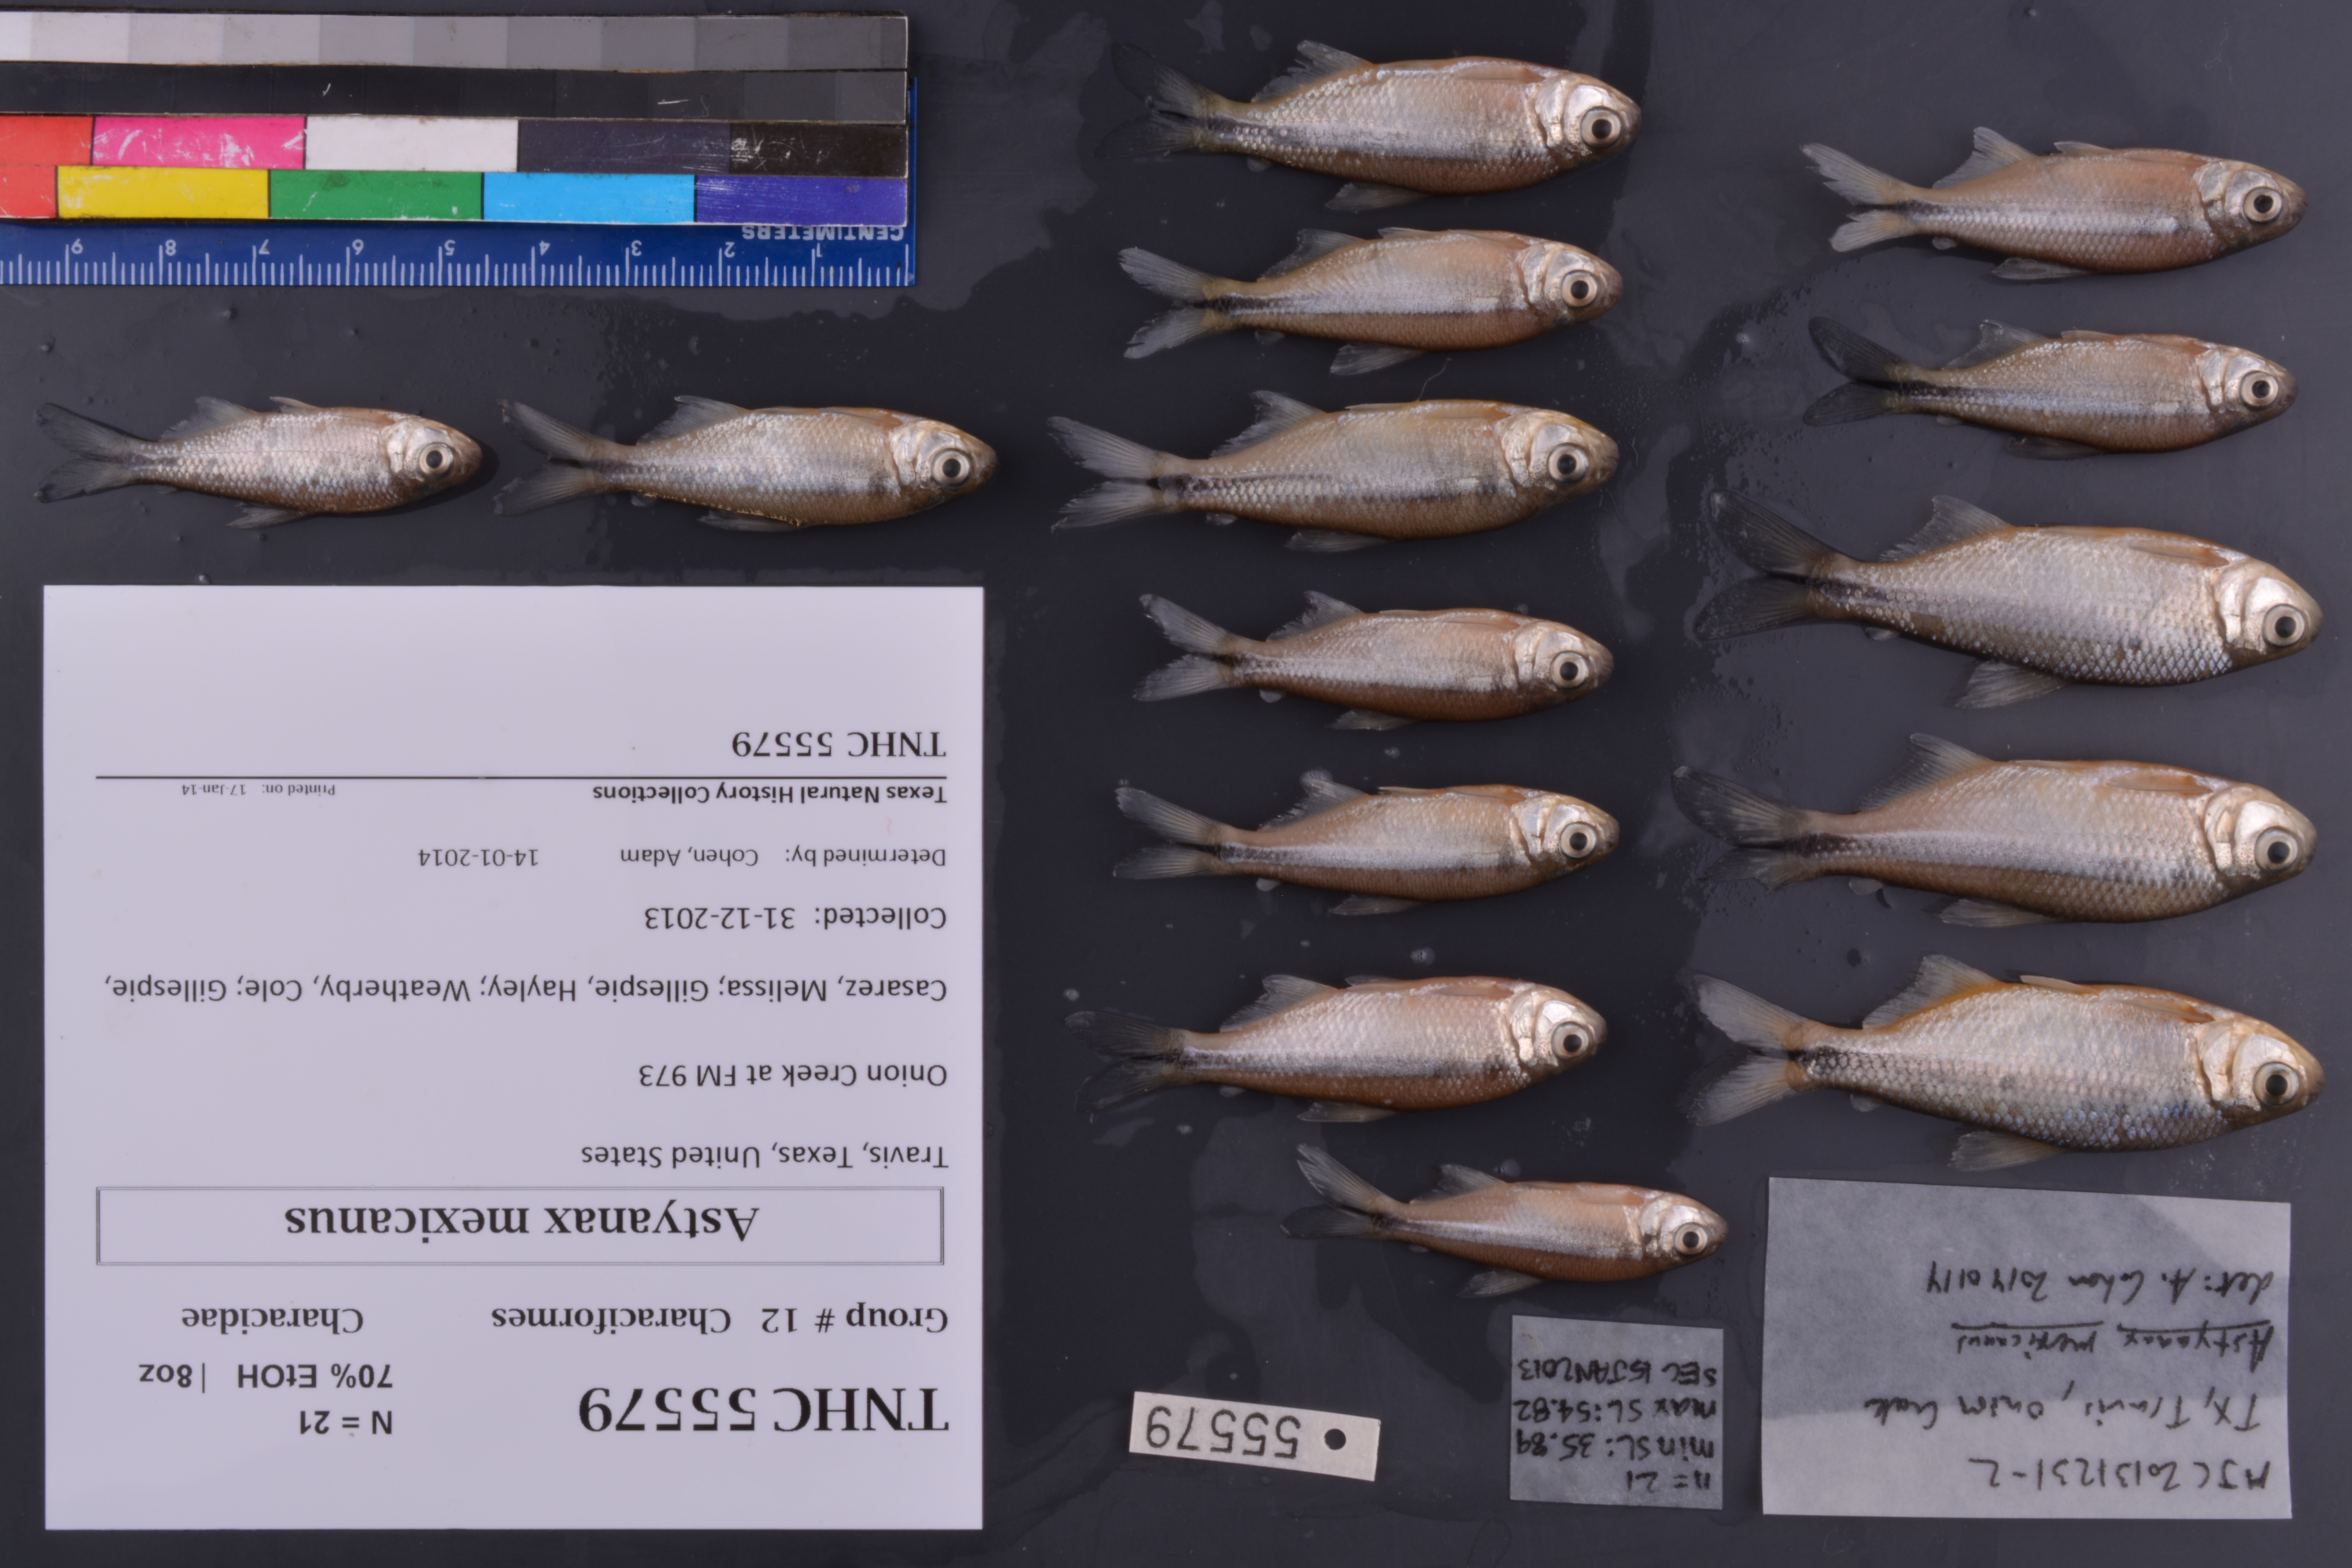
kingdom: Animalia
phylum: Chordata
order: Characiformes
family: Characidae
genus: Astyanax
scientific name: Astyanax mexicanus
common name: Mexican tetra
